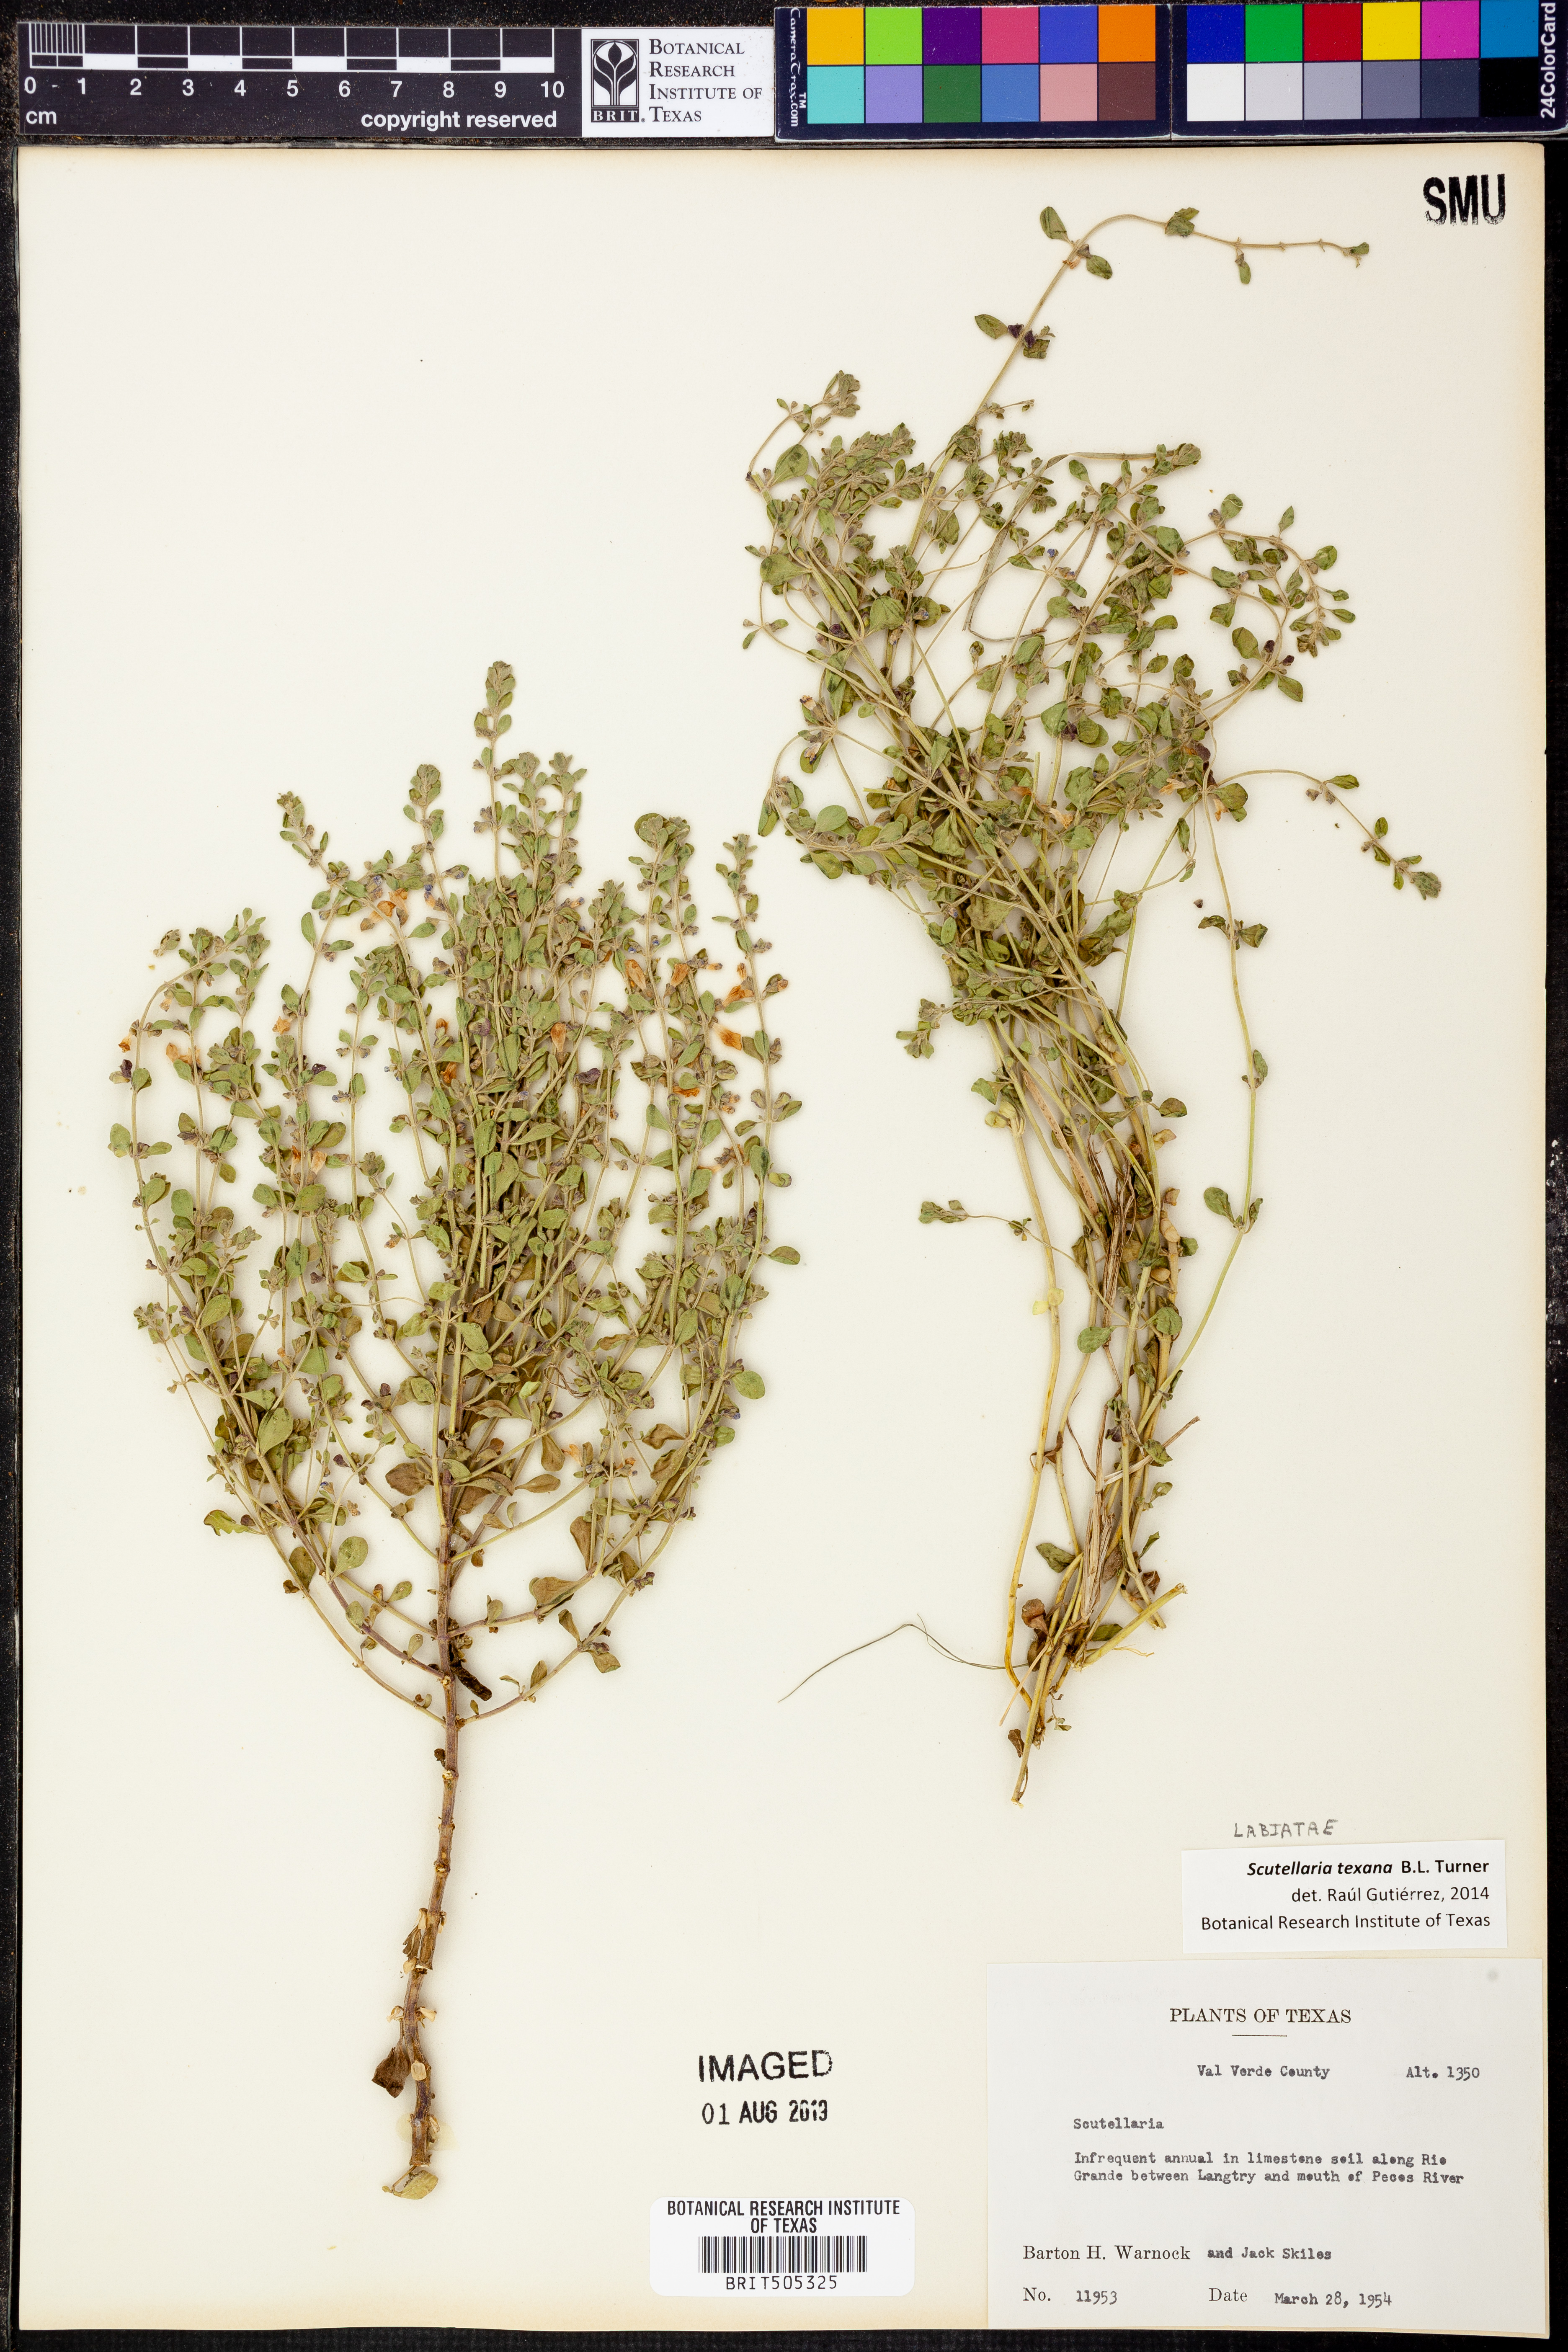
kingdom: Plantae
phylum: Tracheophyta
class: Magnoliopsida
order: Lamiales
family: Lamiaceae
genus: Scutellaria
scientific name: Scutellaria texana
